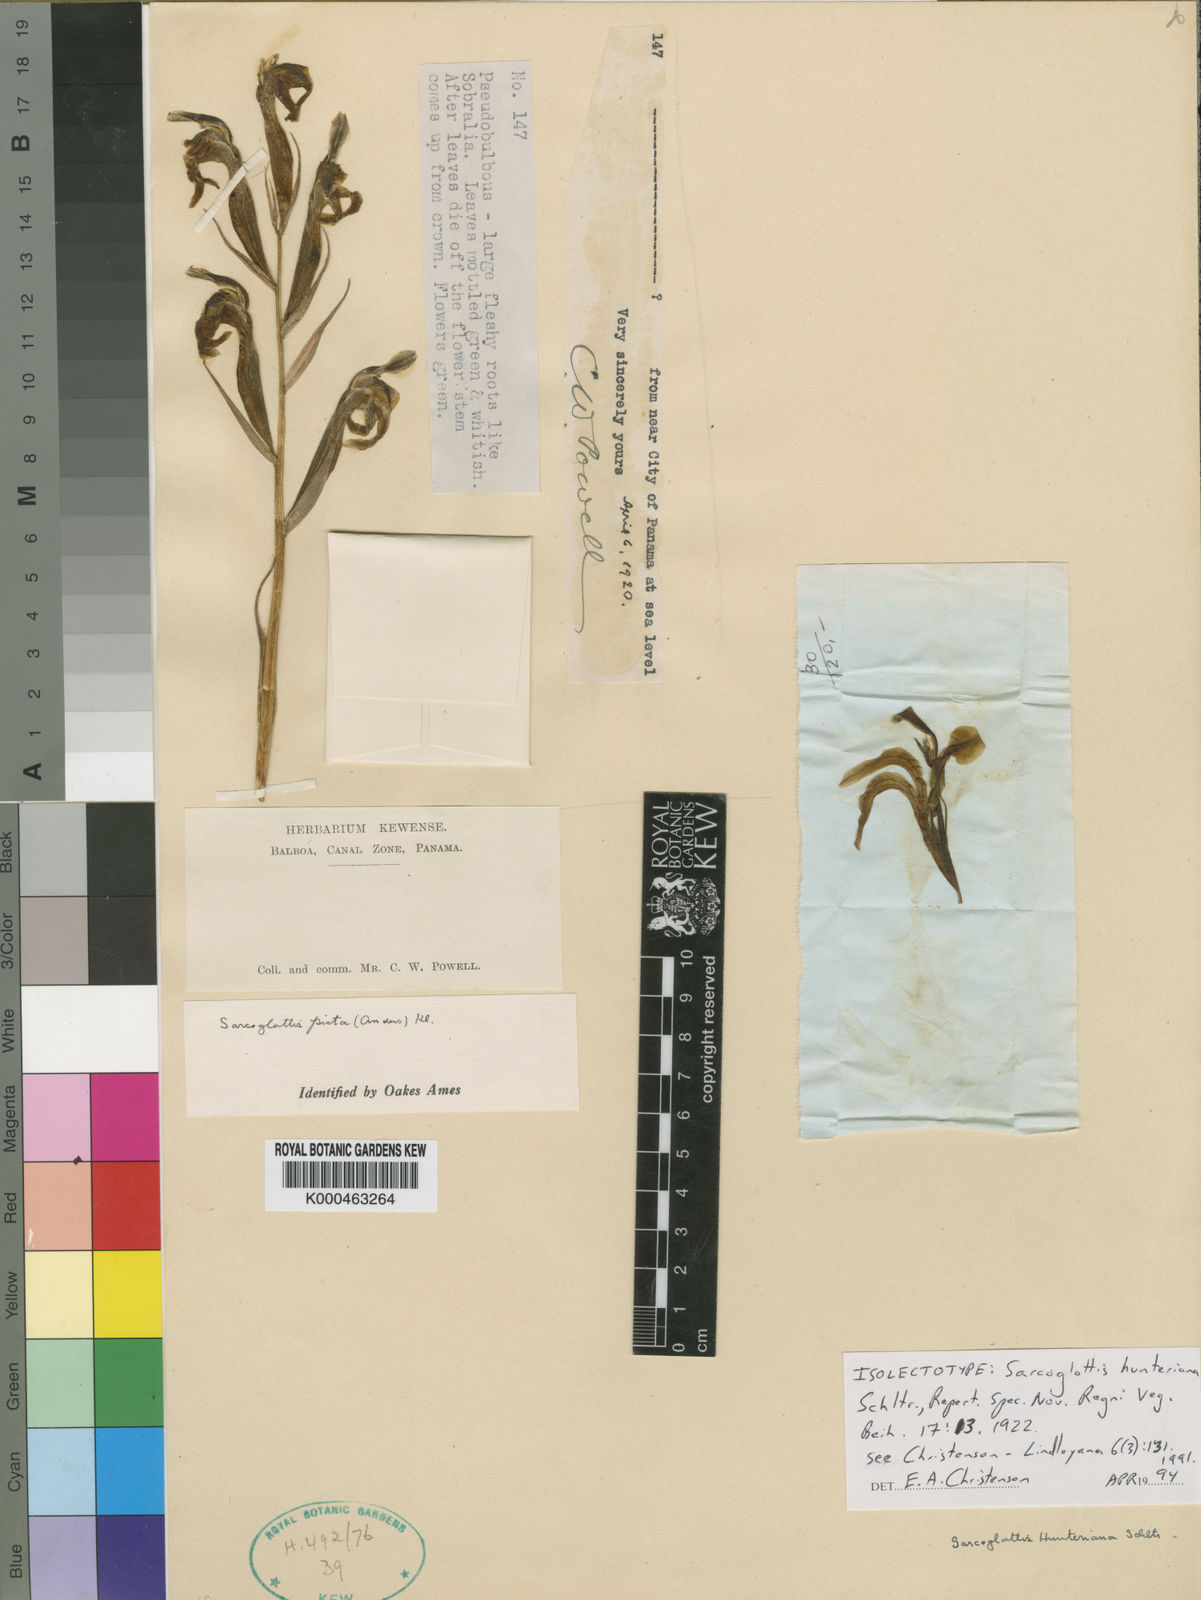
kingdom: Plantae
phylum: Tracheophyta
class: Liliopsida
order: Asparagales
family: Orchidaceae
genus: Sarcoglottis
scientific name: Sarcoglottis hunteriana
